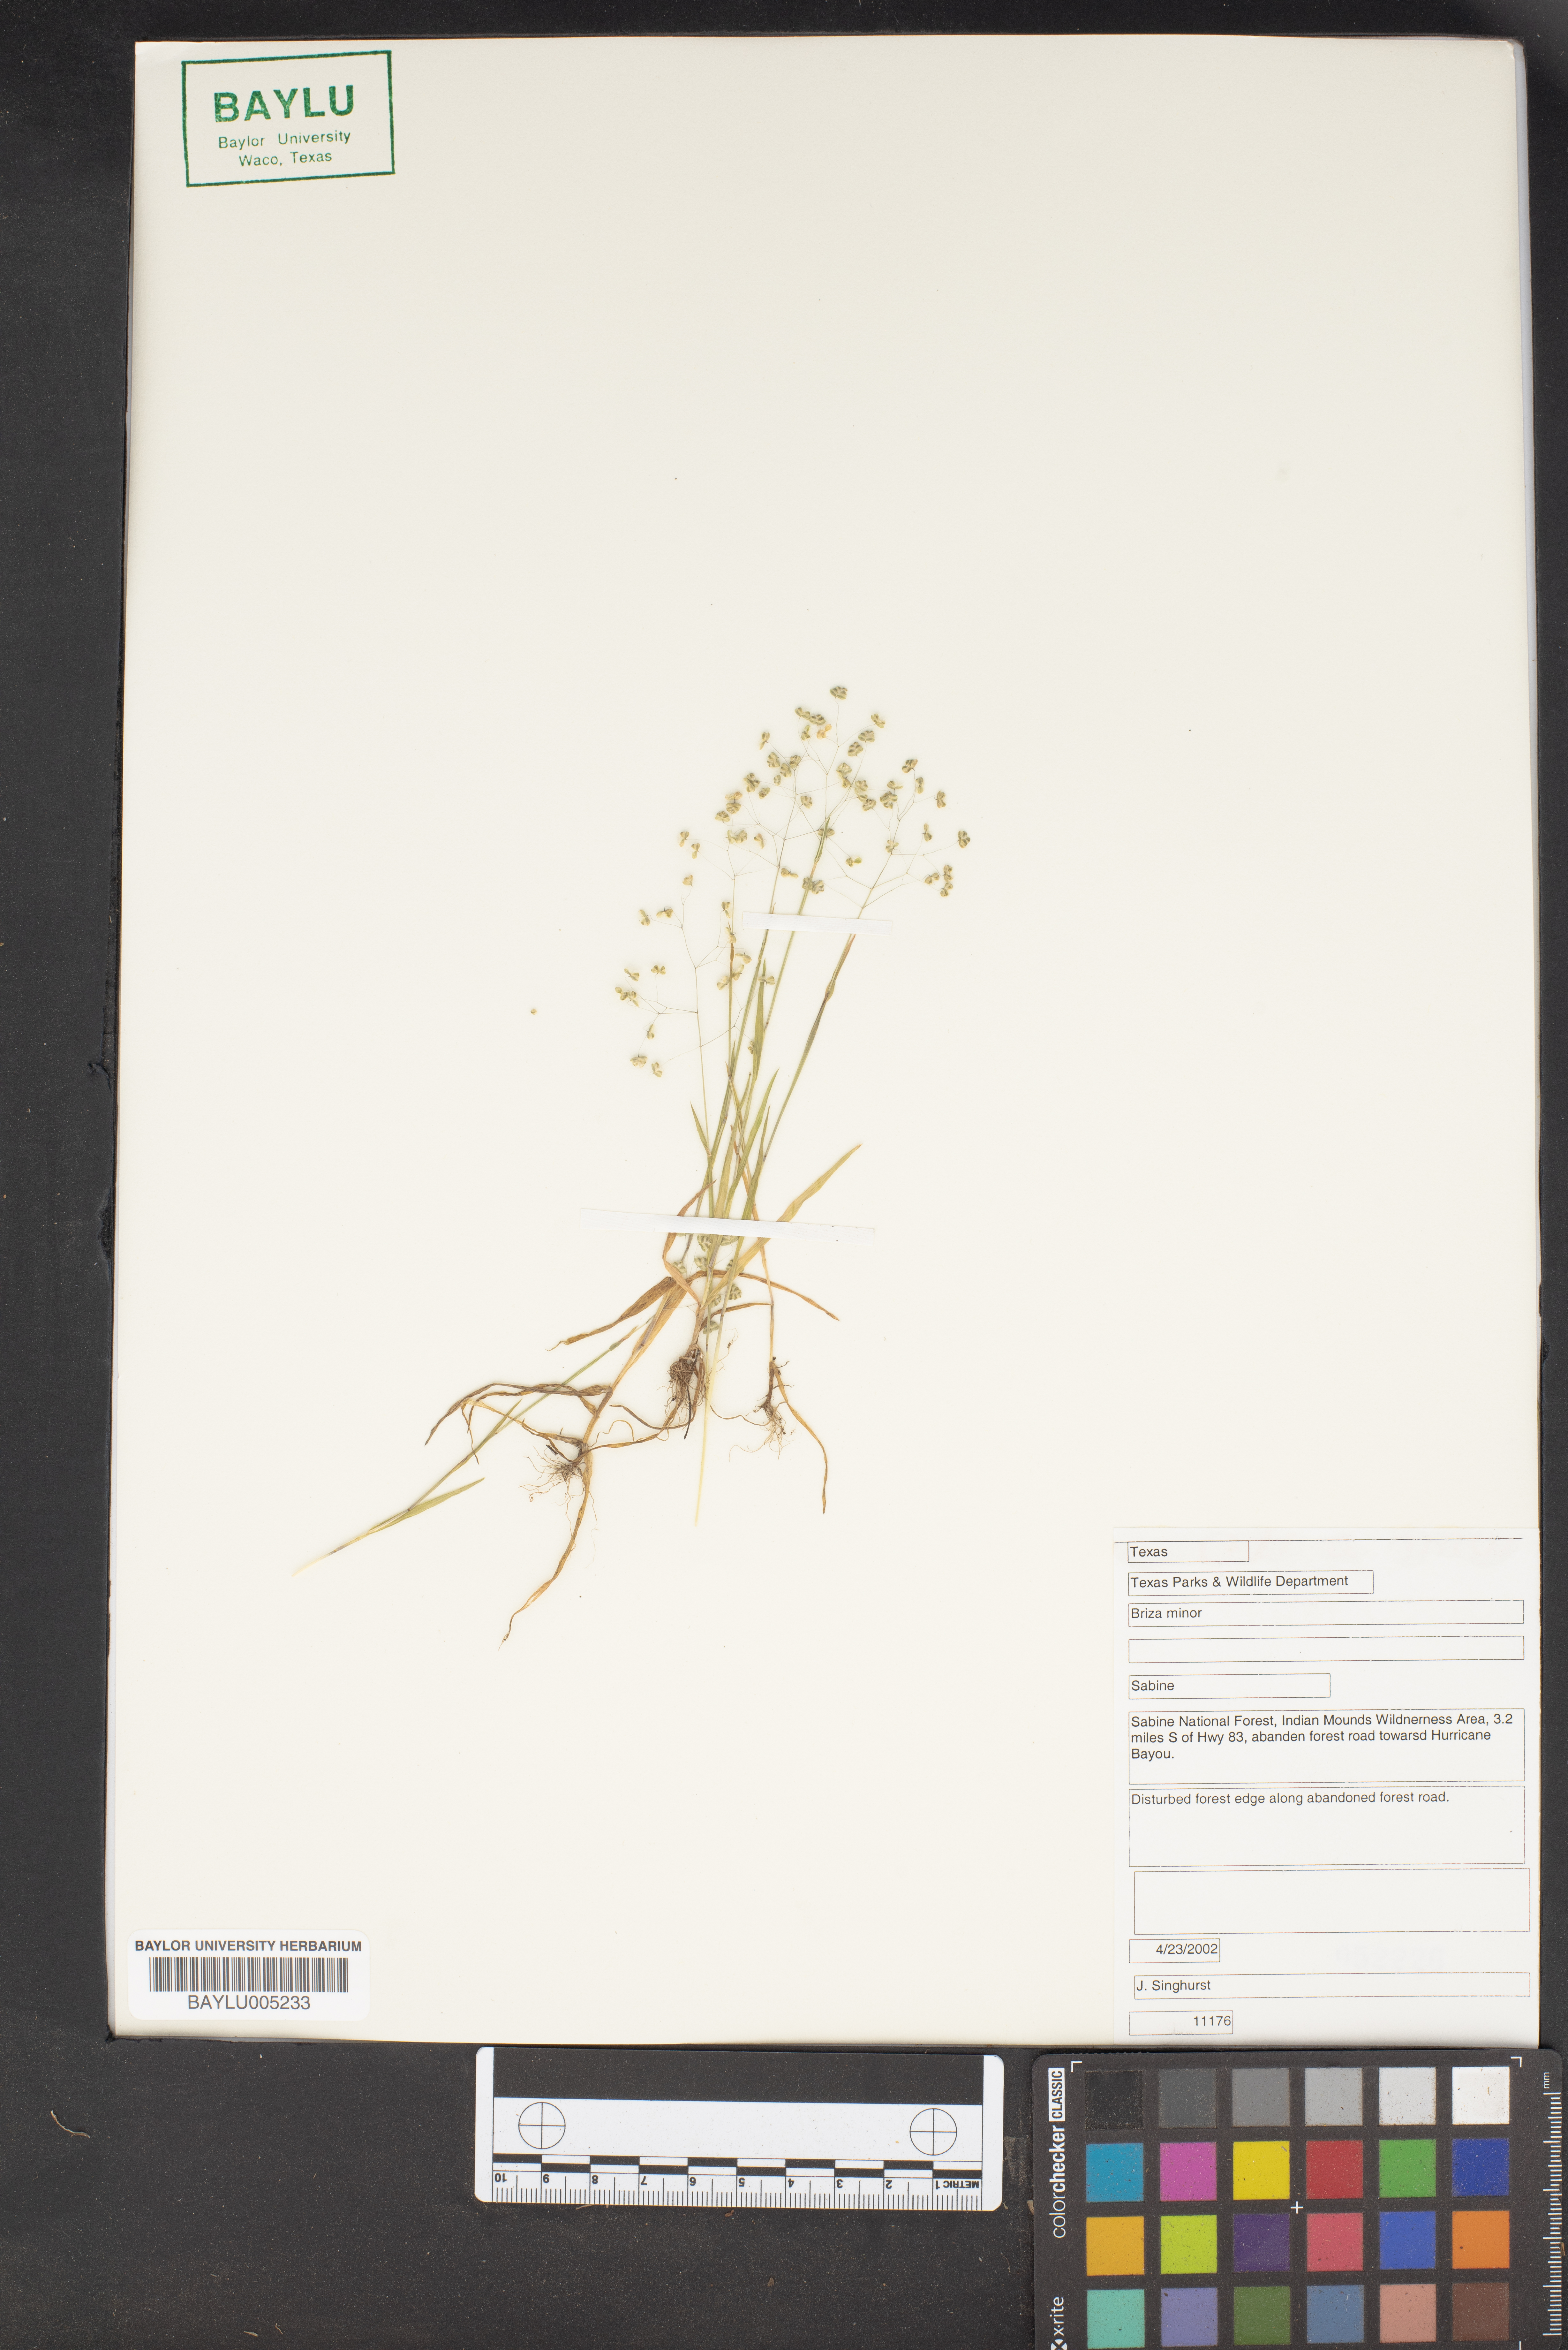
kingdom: Plantae
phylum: Tracheophyta
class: Liliopsida
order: Poales
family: Poaceae
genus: Briza
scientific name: Briza minor
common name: Lesser quaking-grass
